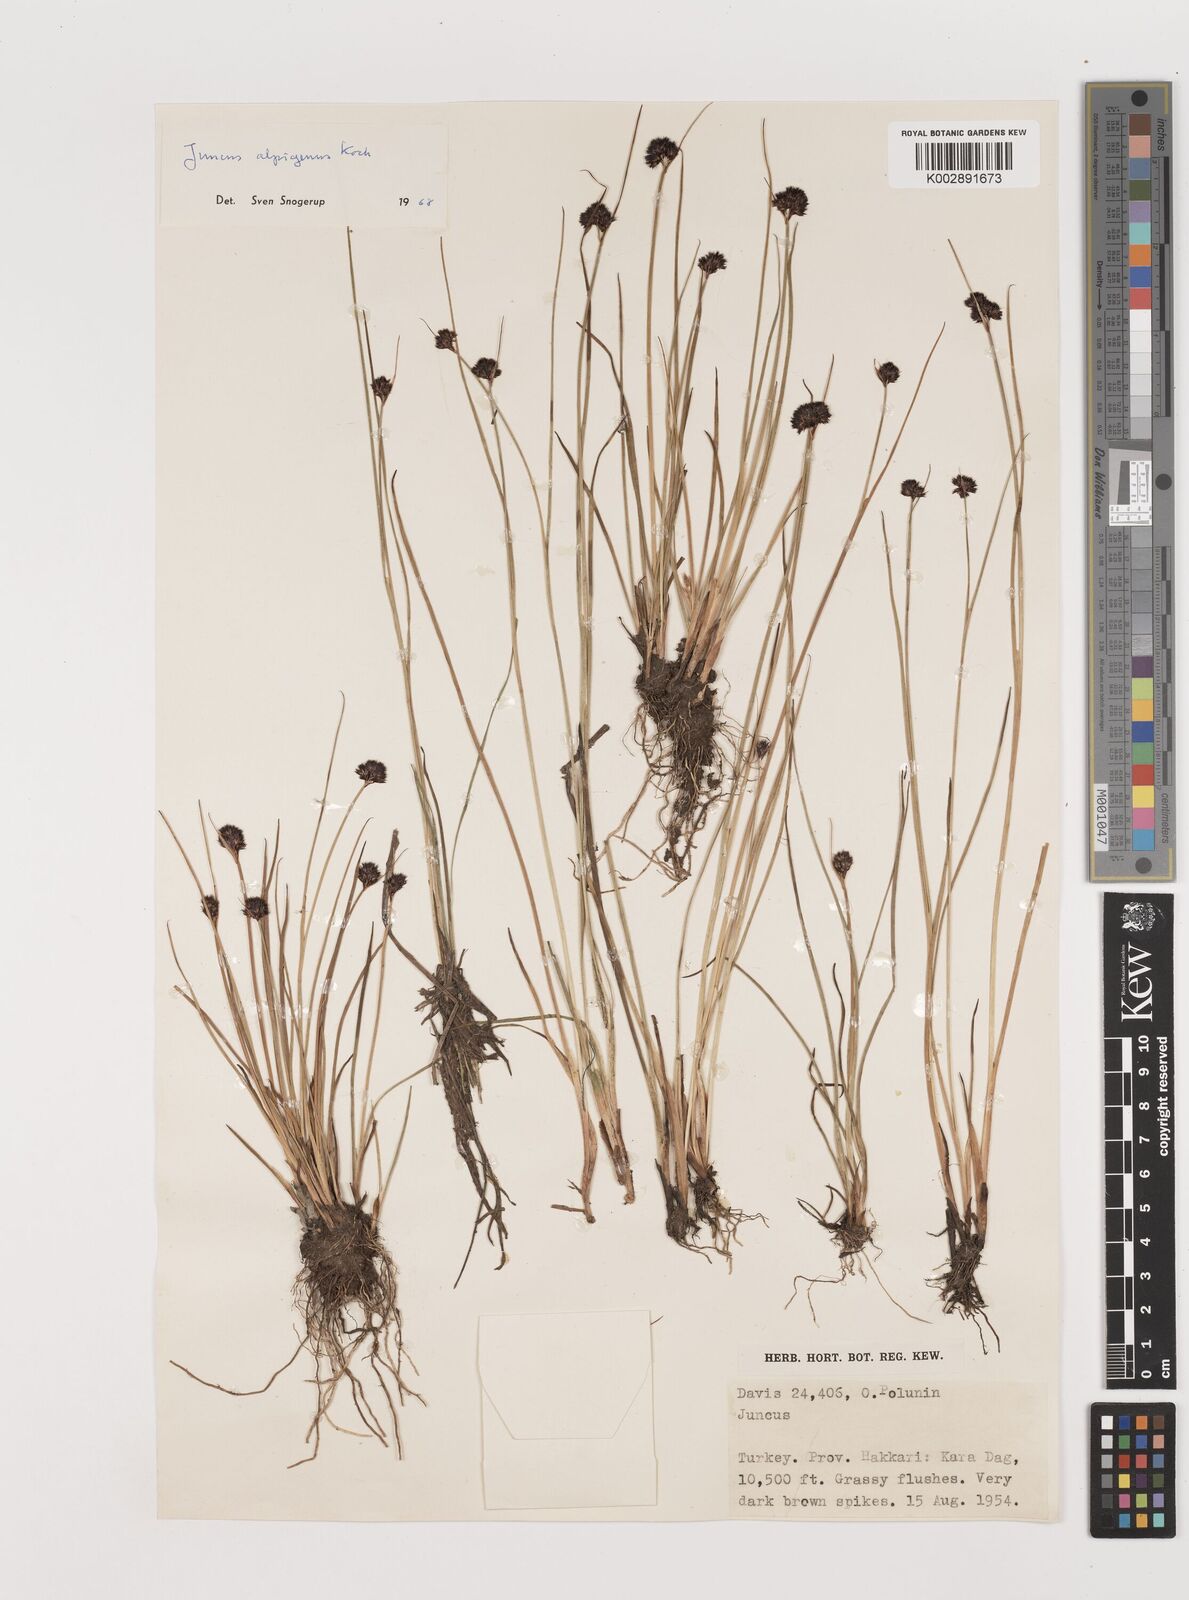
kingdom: Plantae
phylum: Tracheophyta
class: Liliopsida
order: Poales
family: Juncaceae
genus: Juncus
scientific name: Juncus alpigenus
